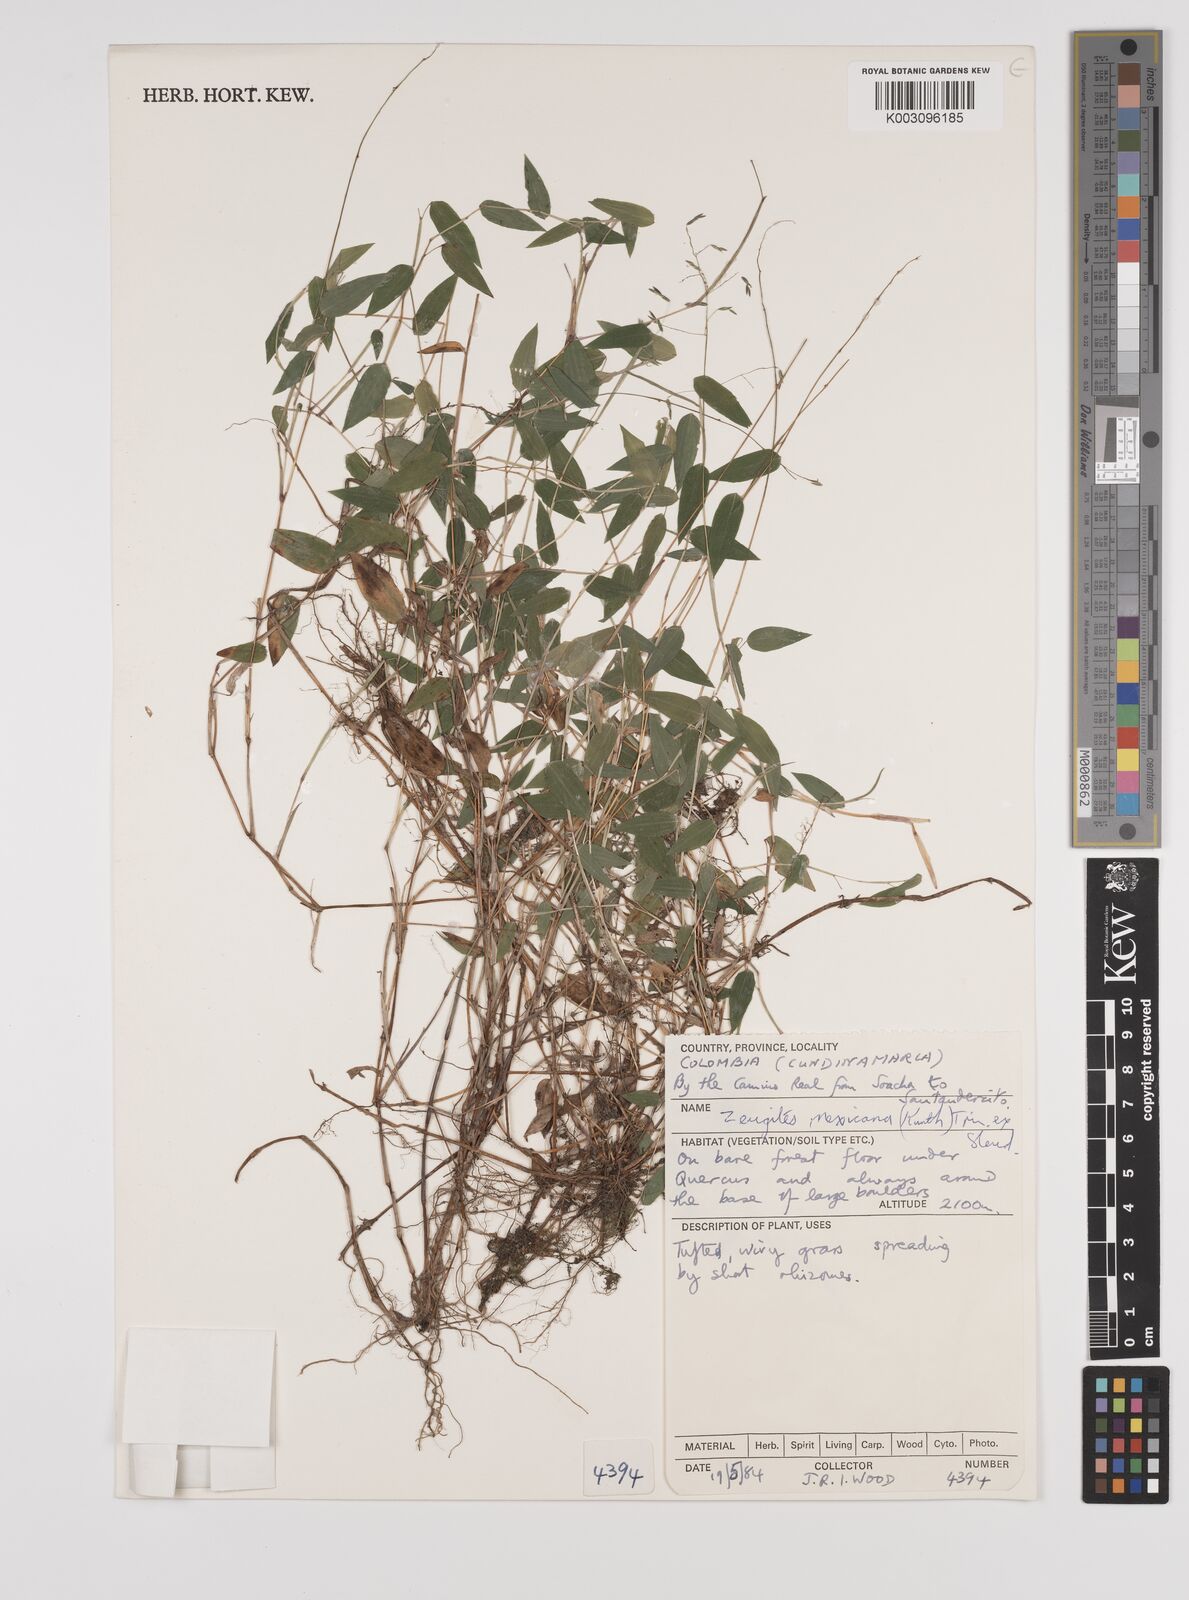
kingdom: Plantae
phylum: Tracheophyta
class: Liliopsida
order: Poales
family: Poaceae
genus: Zeugites
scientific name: Zeugites americanus
